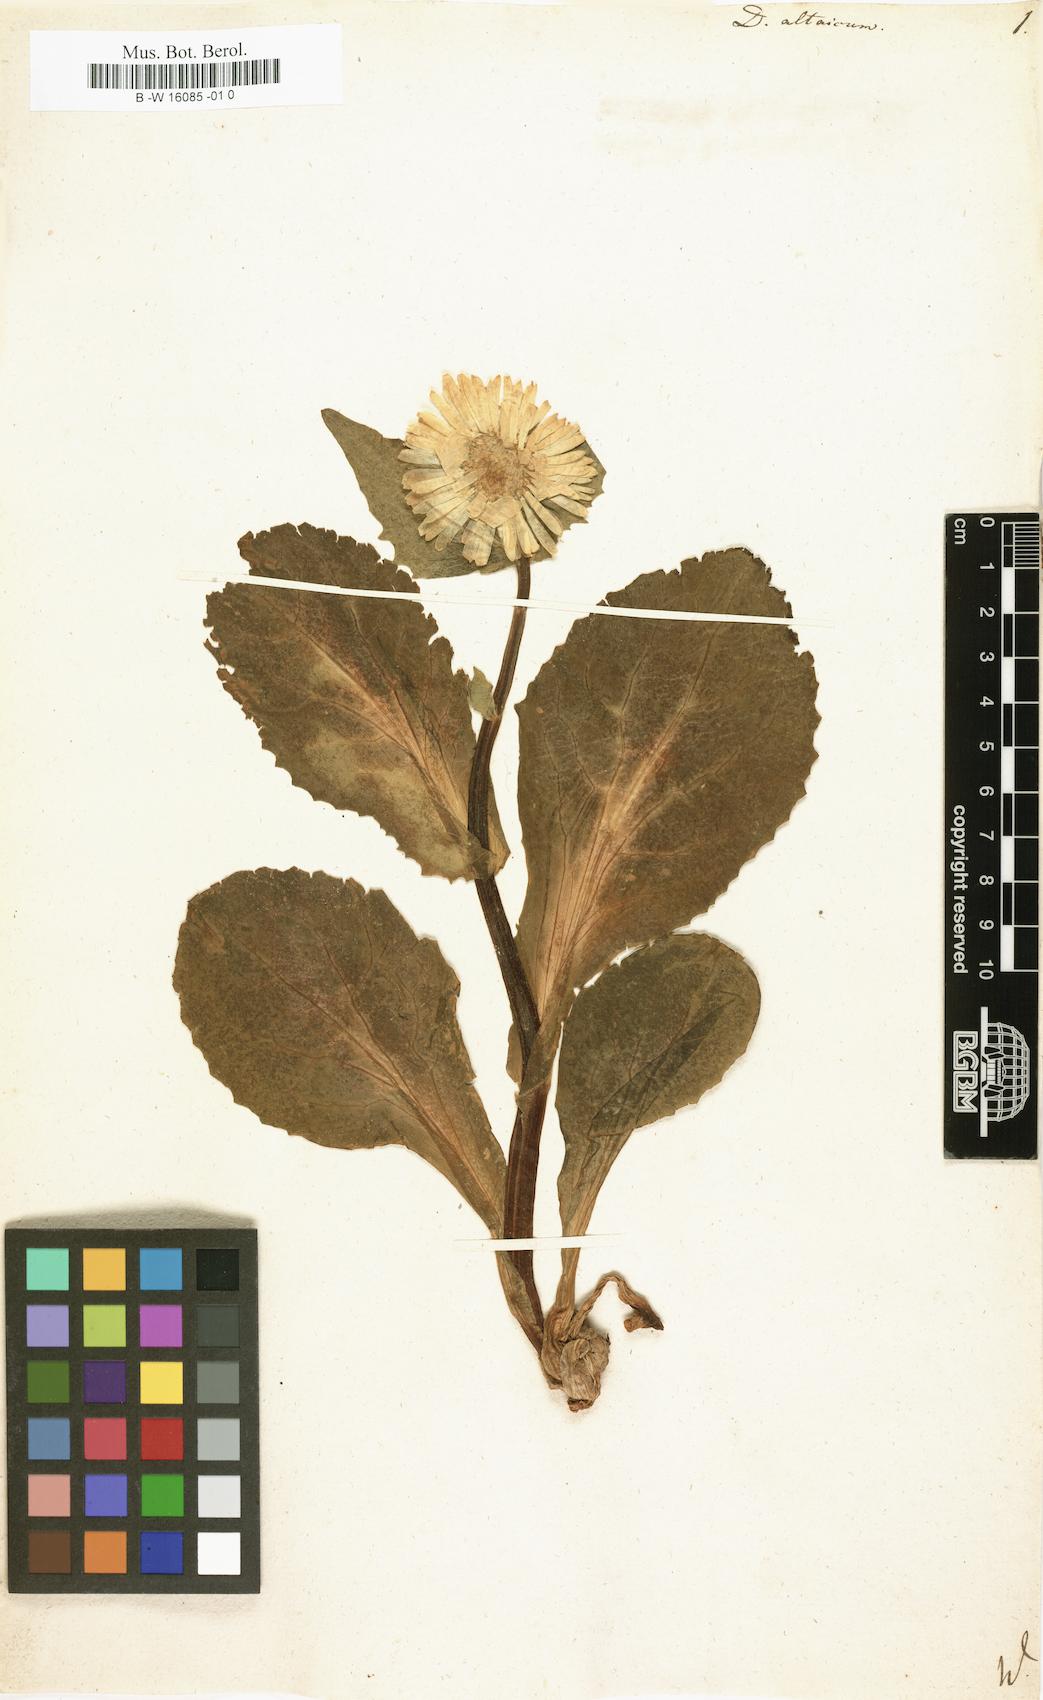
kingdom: Plantae
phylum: Tracheophyta
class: Magnoliopsida
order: Asterales
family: Asteraceae
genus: Doronicum
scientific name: Doronicum altaicum
